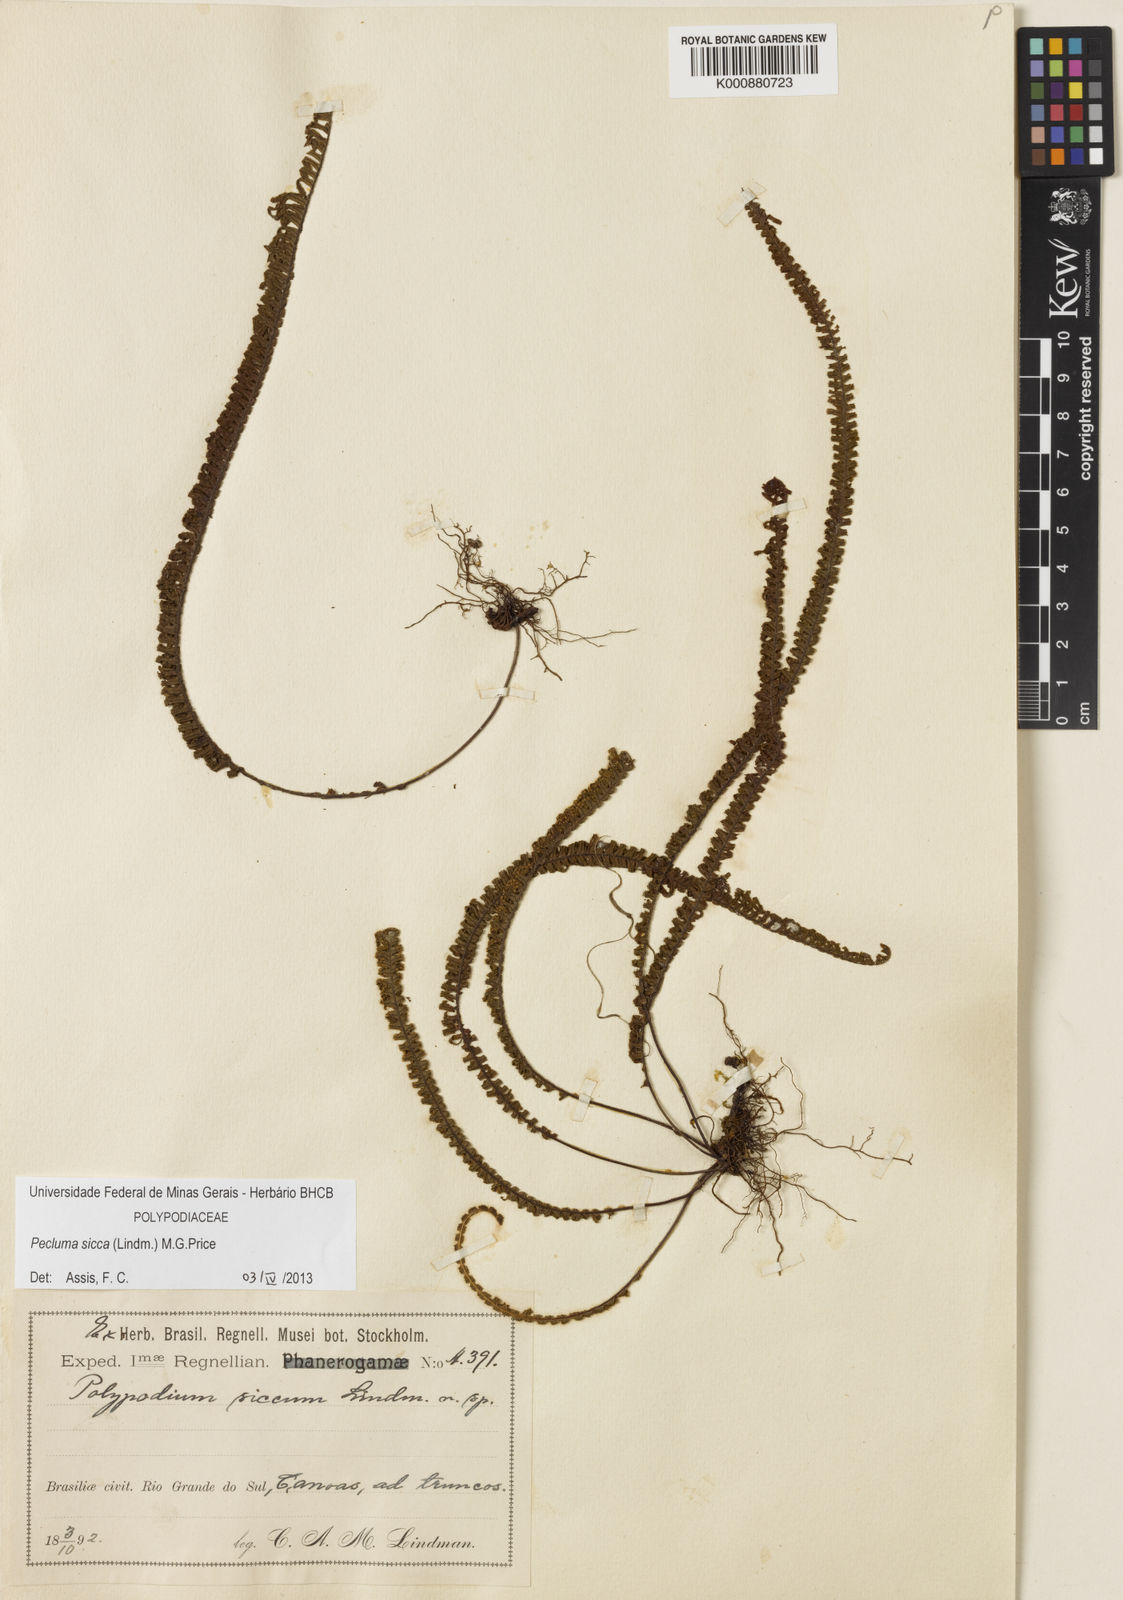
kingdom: Plantae
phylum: Tracheophyta
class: Polypodiopsida
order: Polypodiales
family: Polypodiaceae
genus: Pecluma
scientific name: Pecluma sicca
